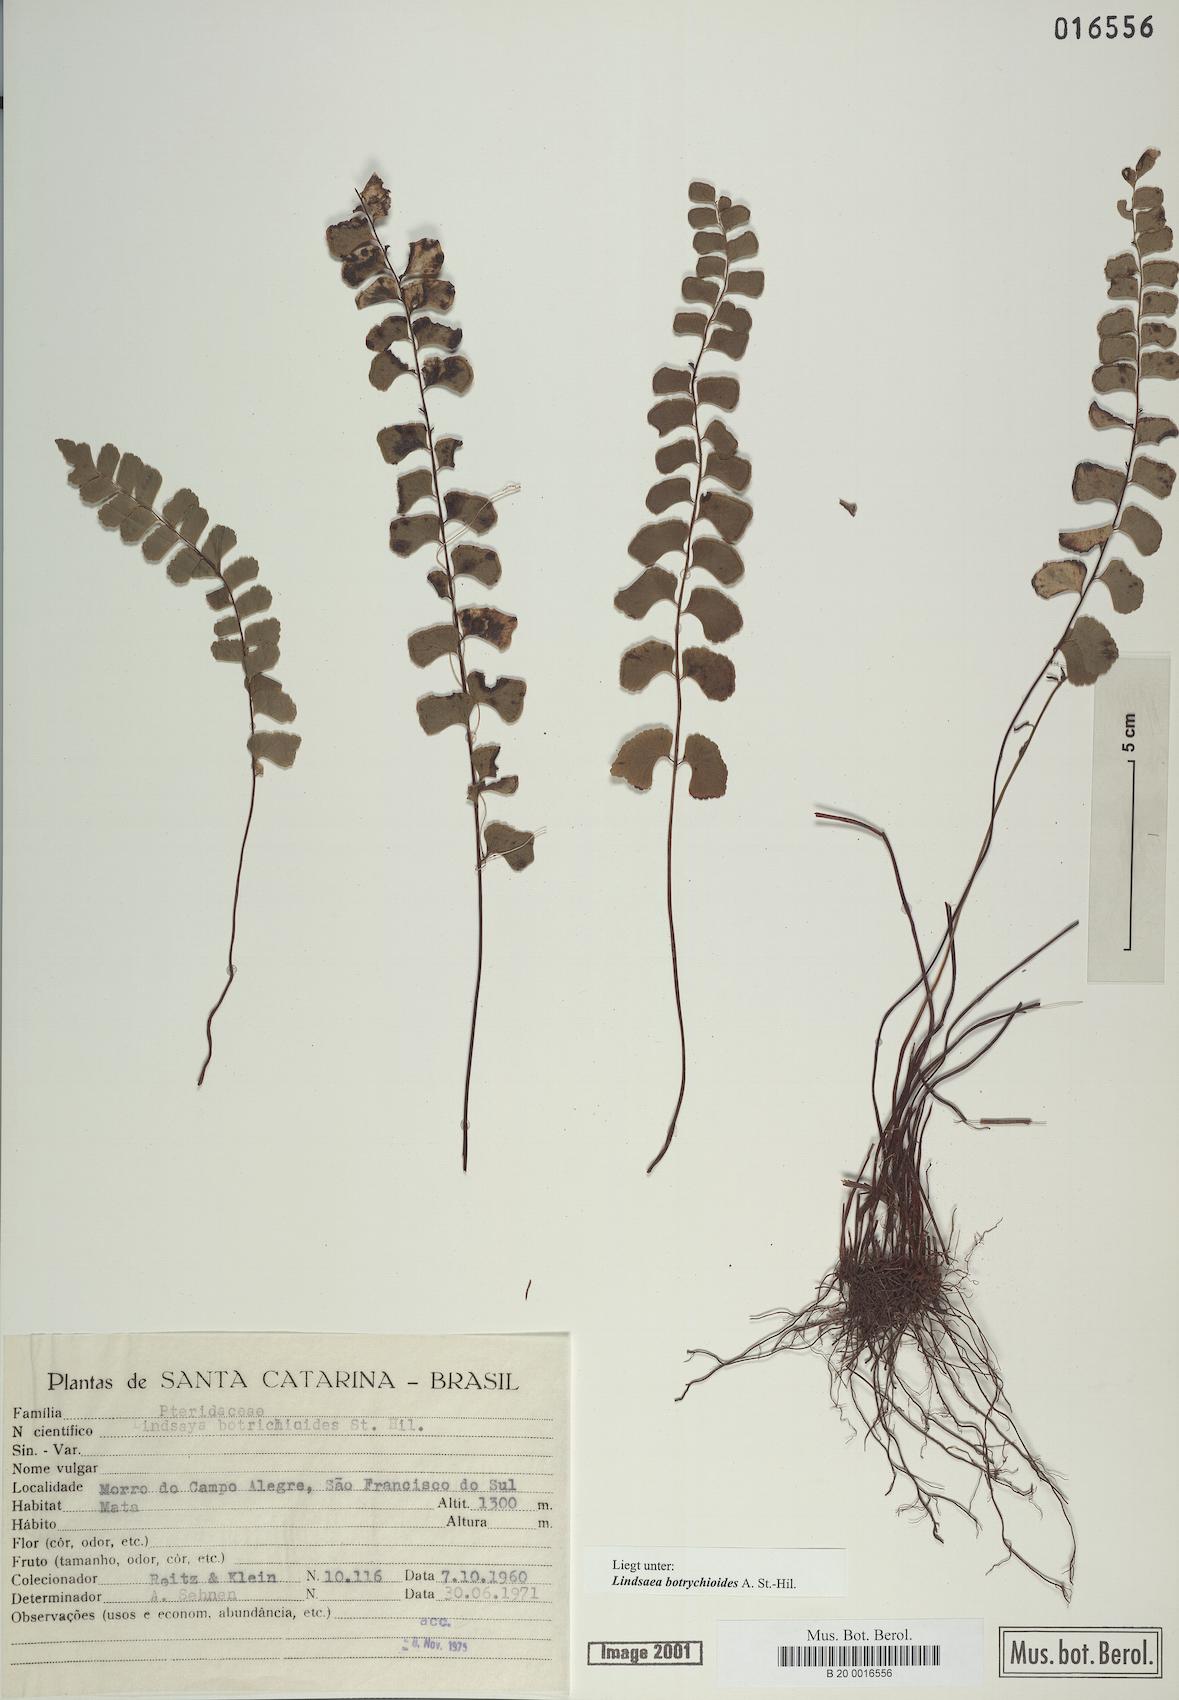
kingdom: Plantae
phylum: Tracheophyta
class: Polypodiopsida
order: Polypodiales
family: Lindsaeaceae
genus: Lindsaea
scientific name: Lindsaea botrychioides
